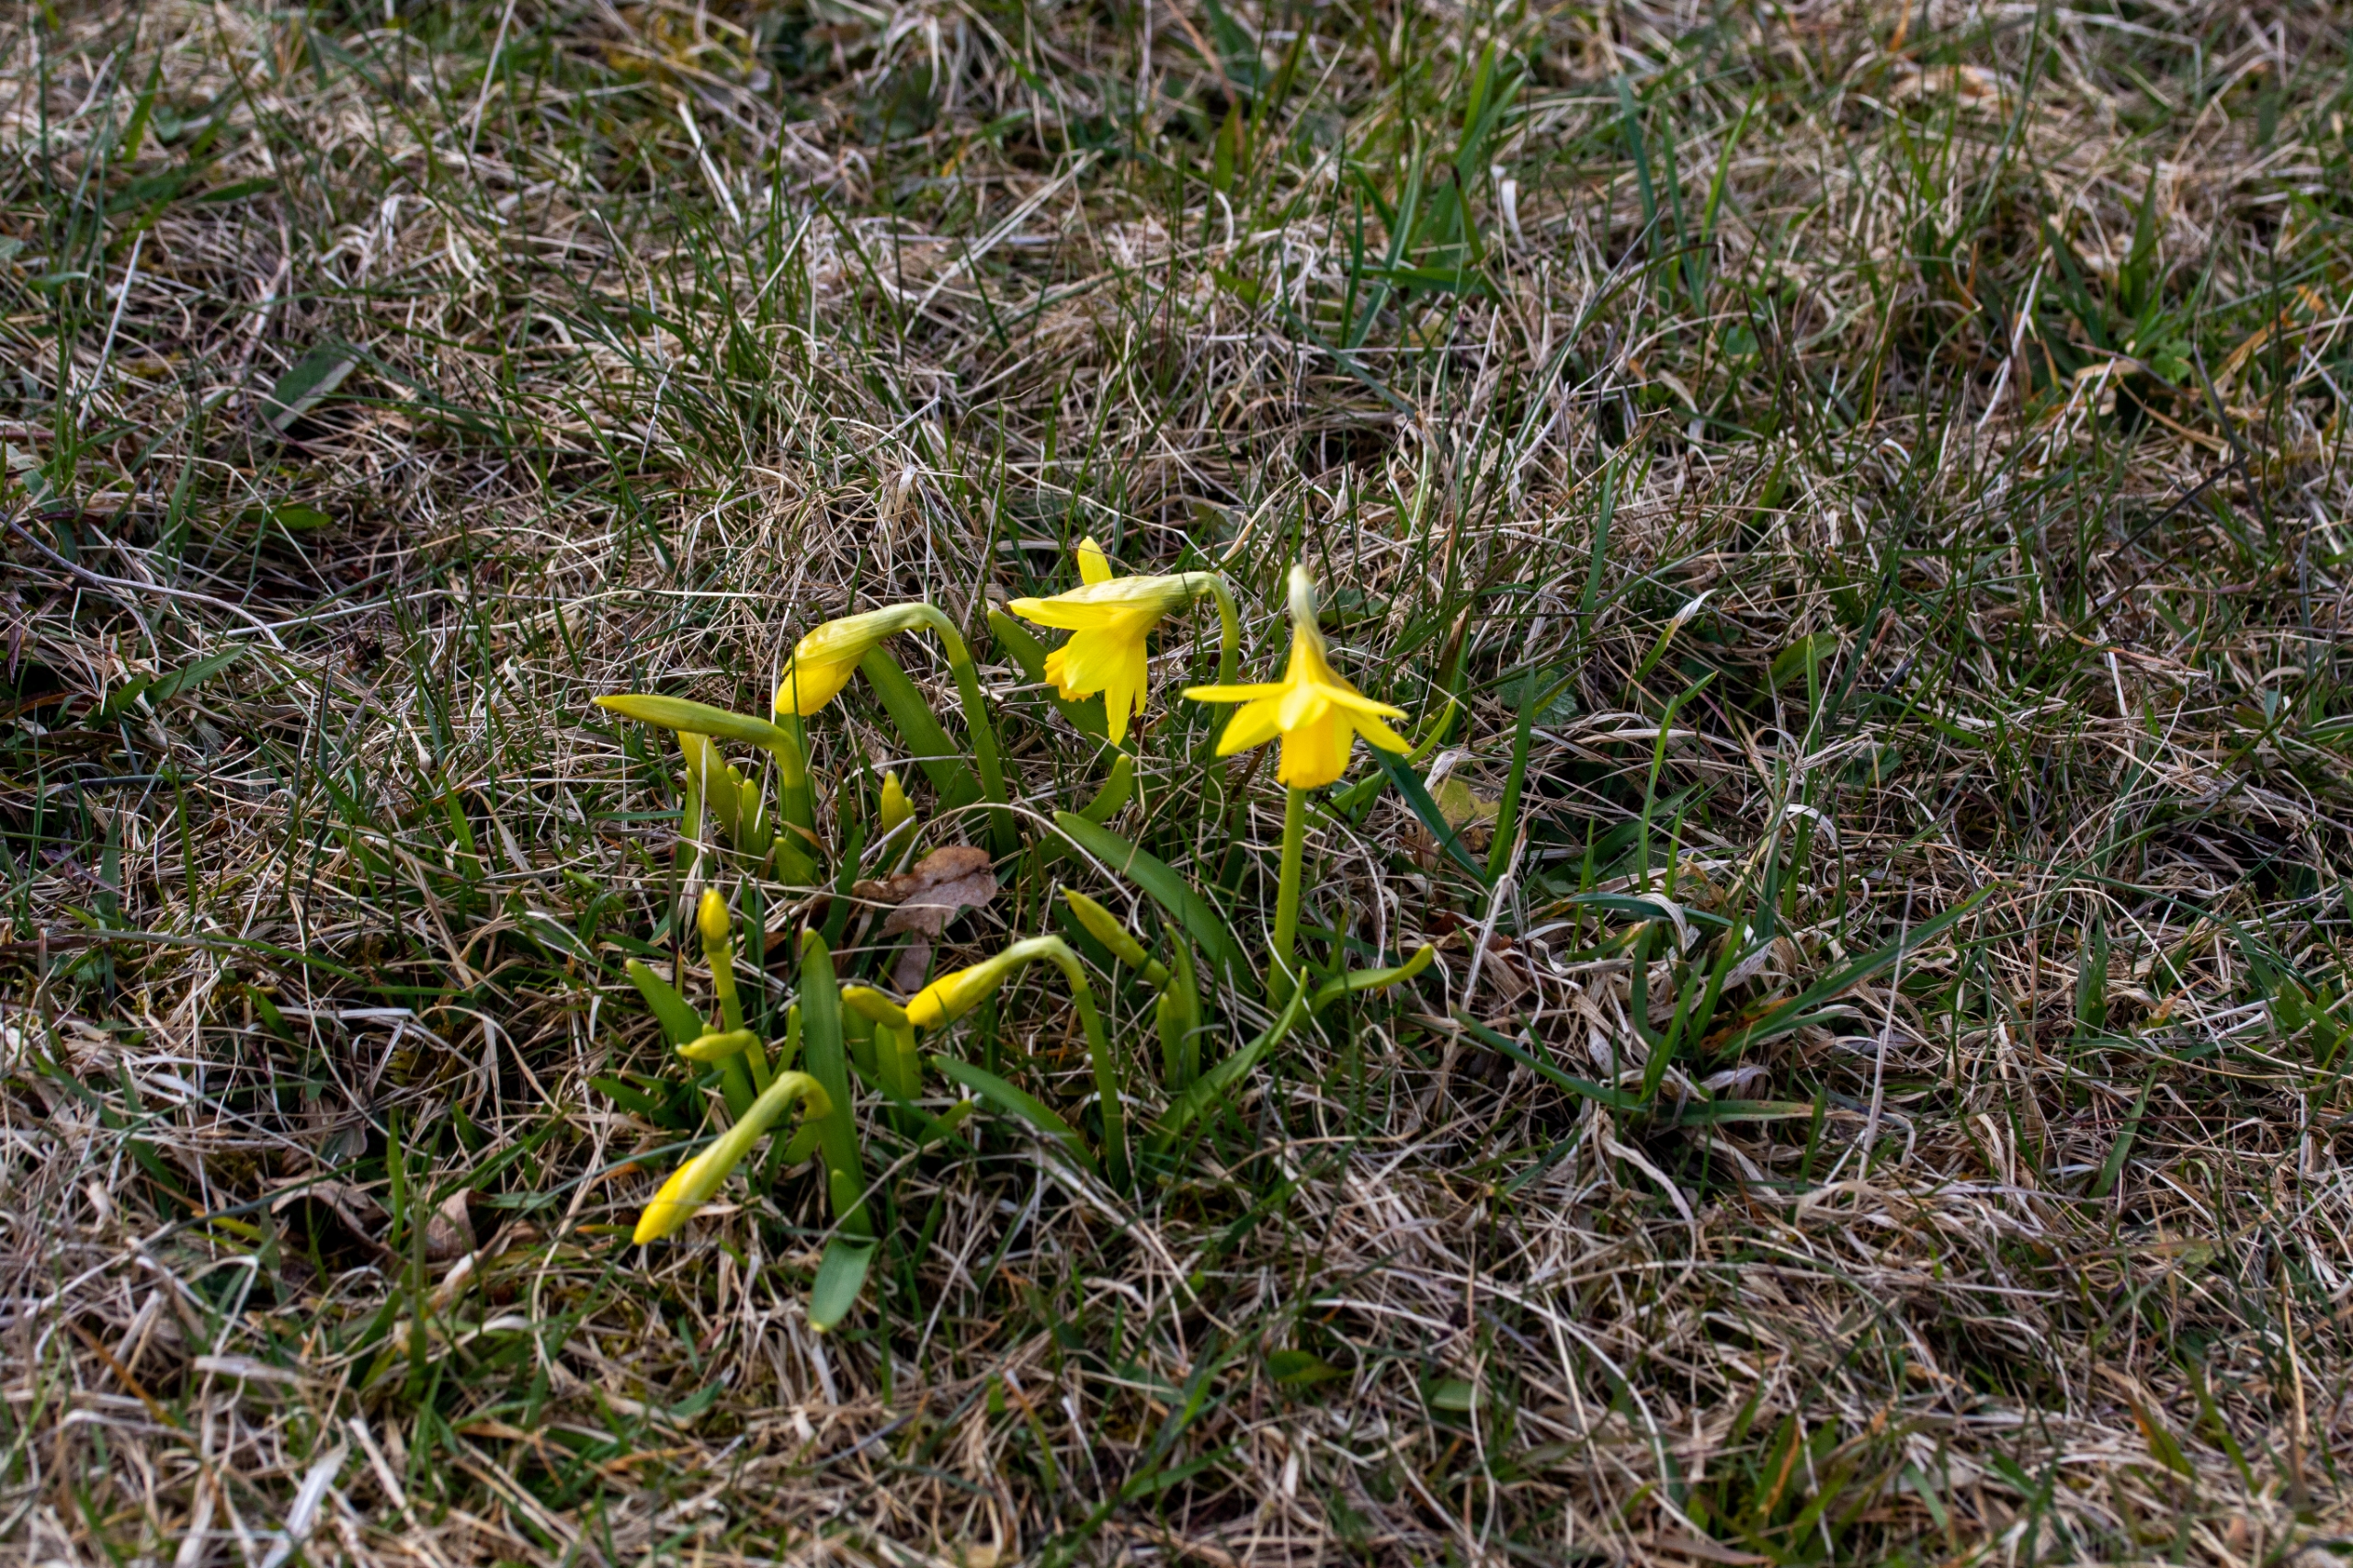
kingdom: Plantae
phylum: Tracheophyta
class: Liliopsida
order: Asparagales
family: Amaryllidaceae
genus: Narcissus
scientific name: Narcissus cyclazetta
